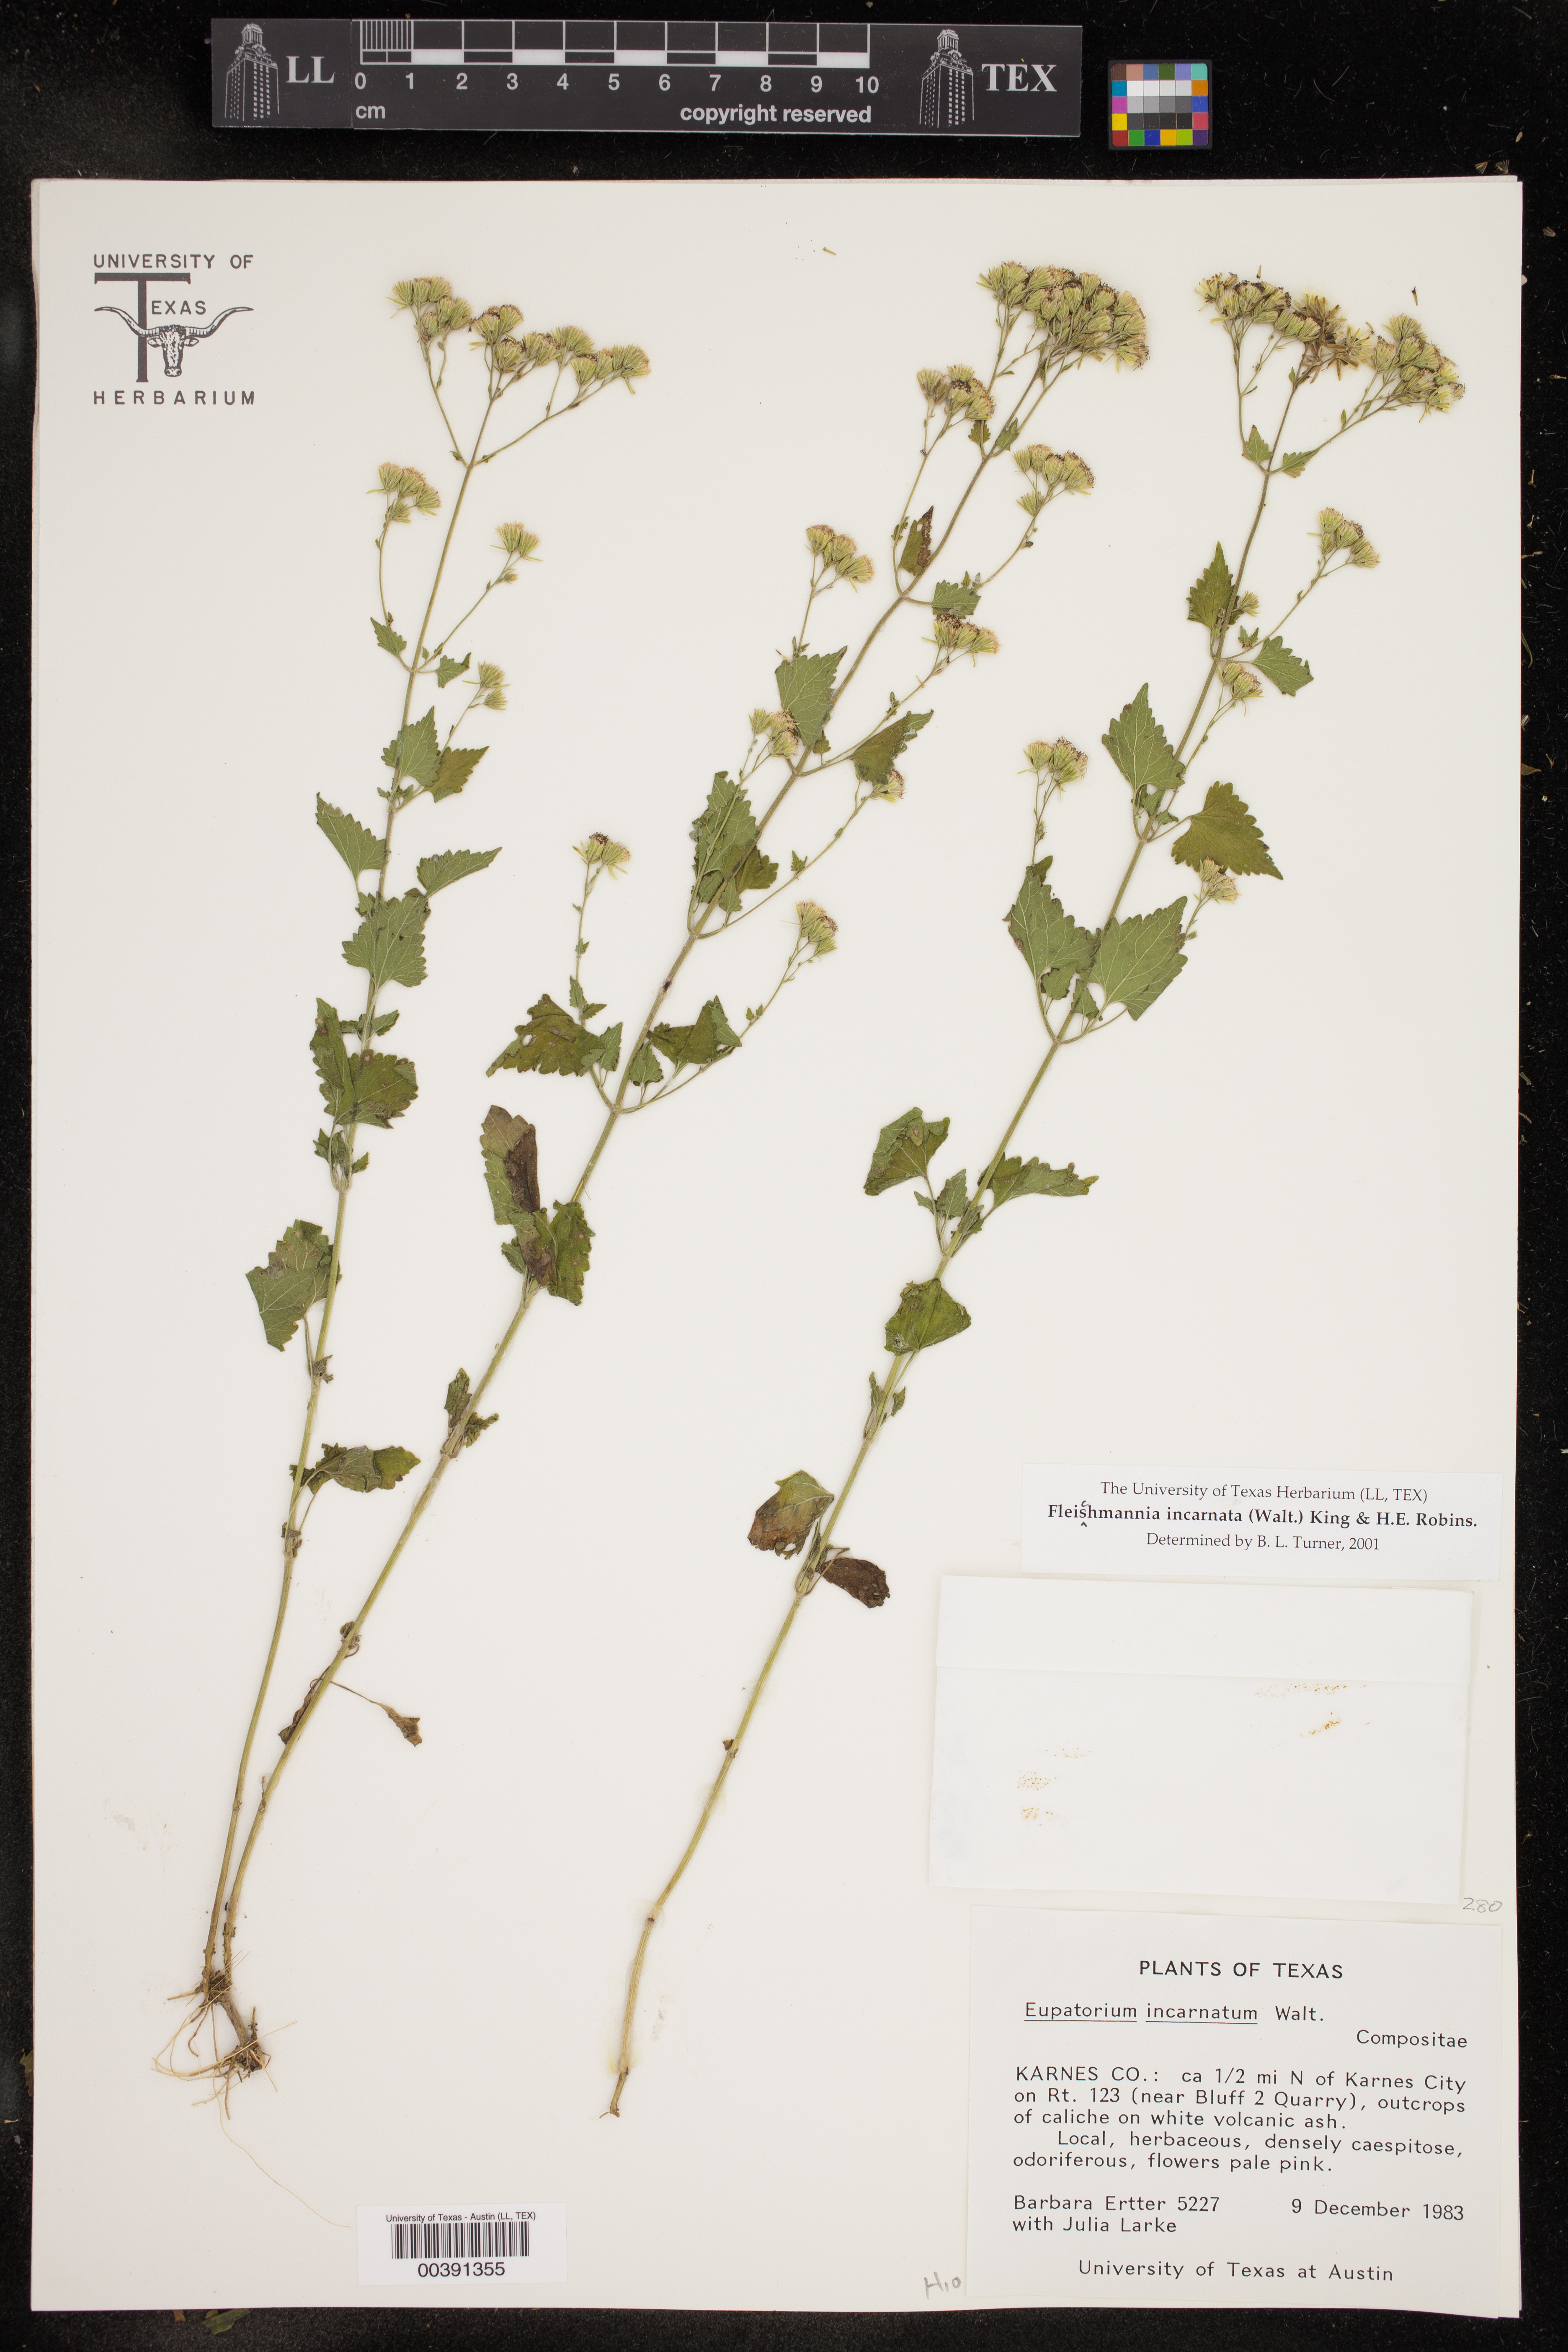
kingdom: Plantae
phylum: Tracheophyta
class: Magnoliopsida
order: Asterales
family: Asteraceae
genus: Fleischmannia
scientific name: Fleischmannia incarnata
